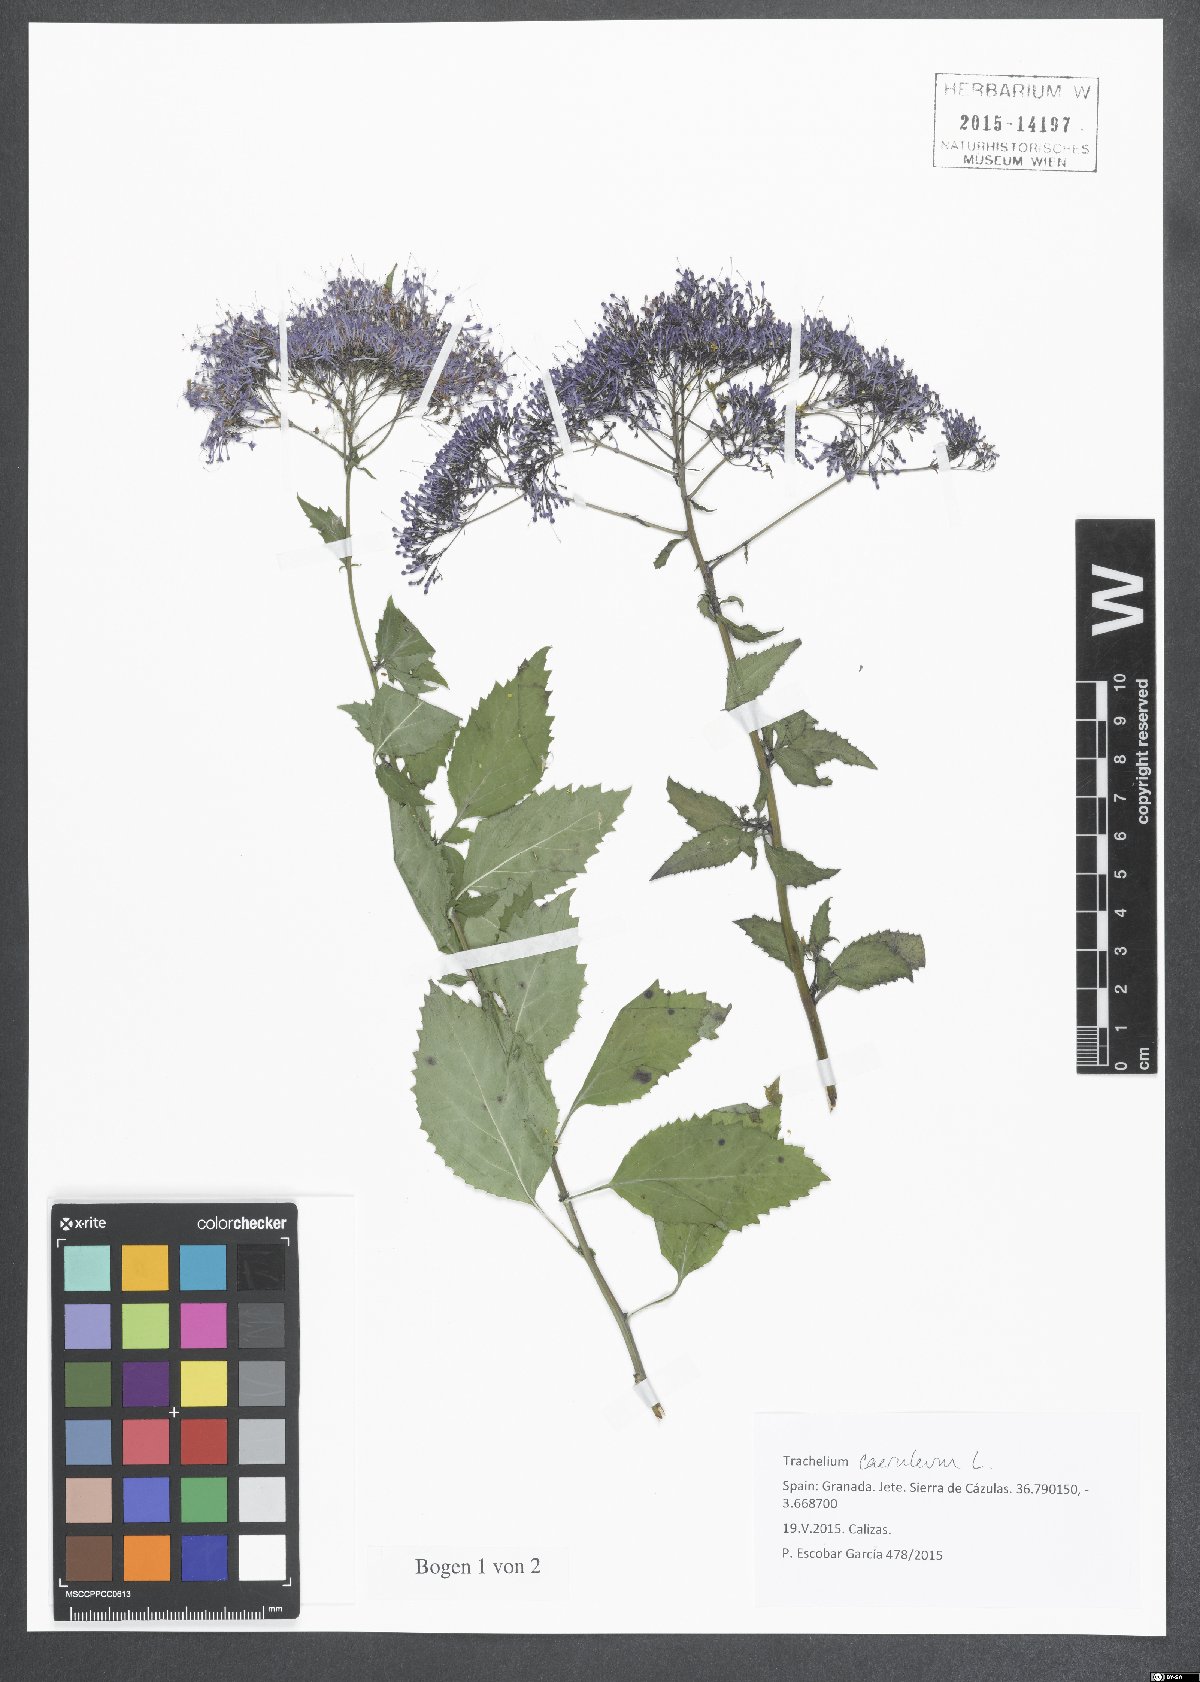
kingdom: Plantae
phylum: Tracheophyta
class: Magnoliopsida
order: Asterales
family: Campanulaceae
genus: Trachelium
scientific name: Trachelium caeruleum
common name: Throatwort
